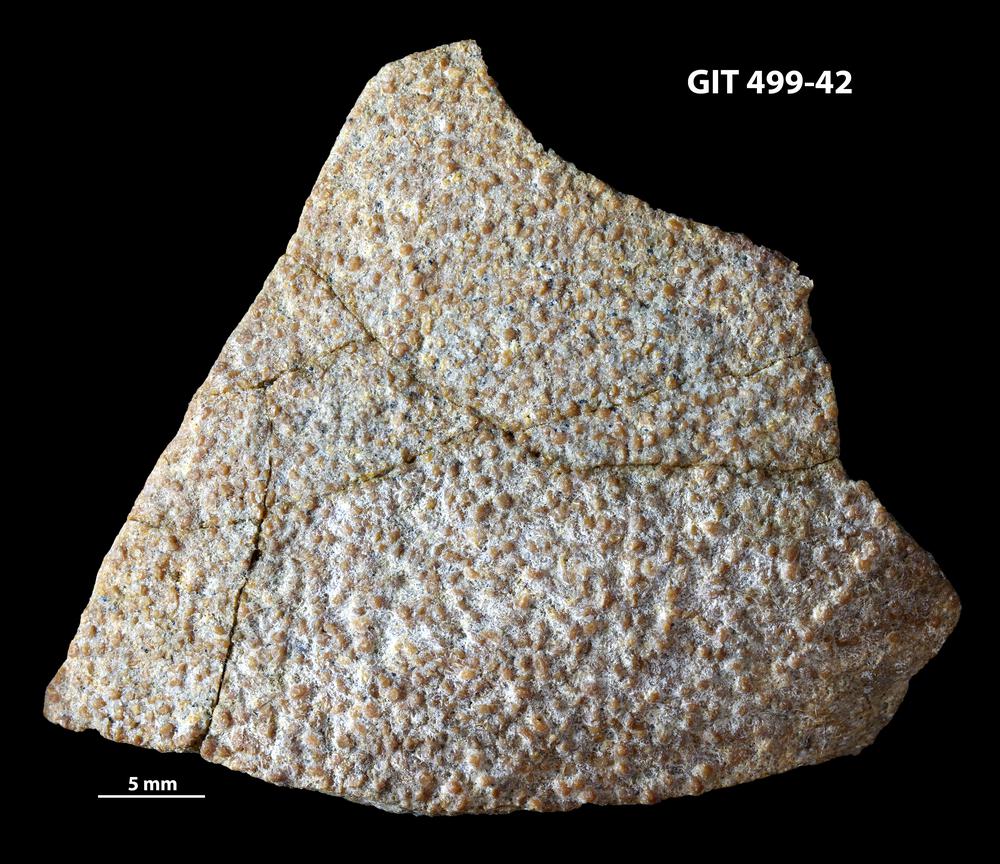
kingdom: Animalia
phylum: Chordata
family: Holoptychiidae
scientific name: Holoptychiidae
